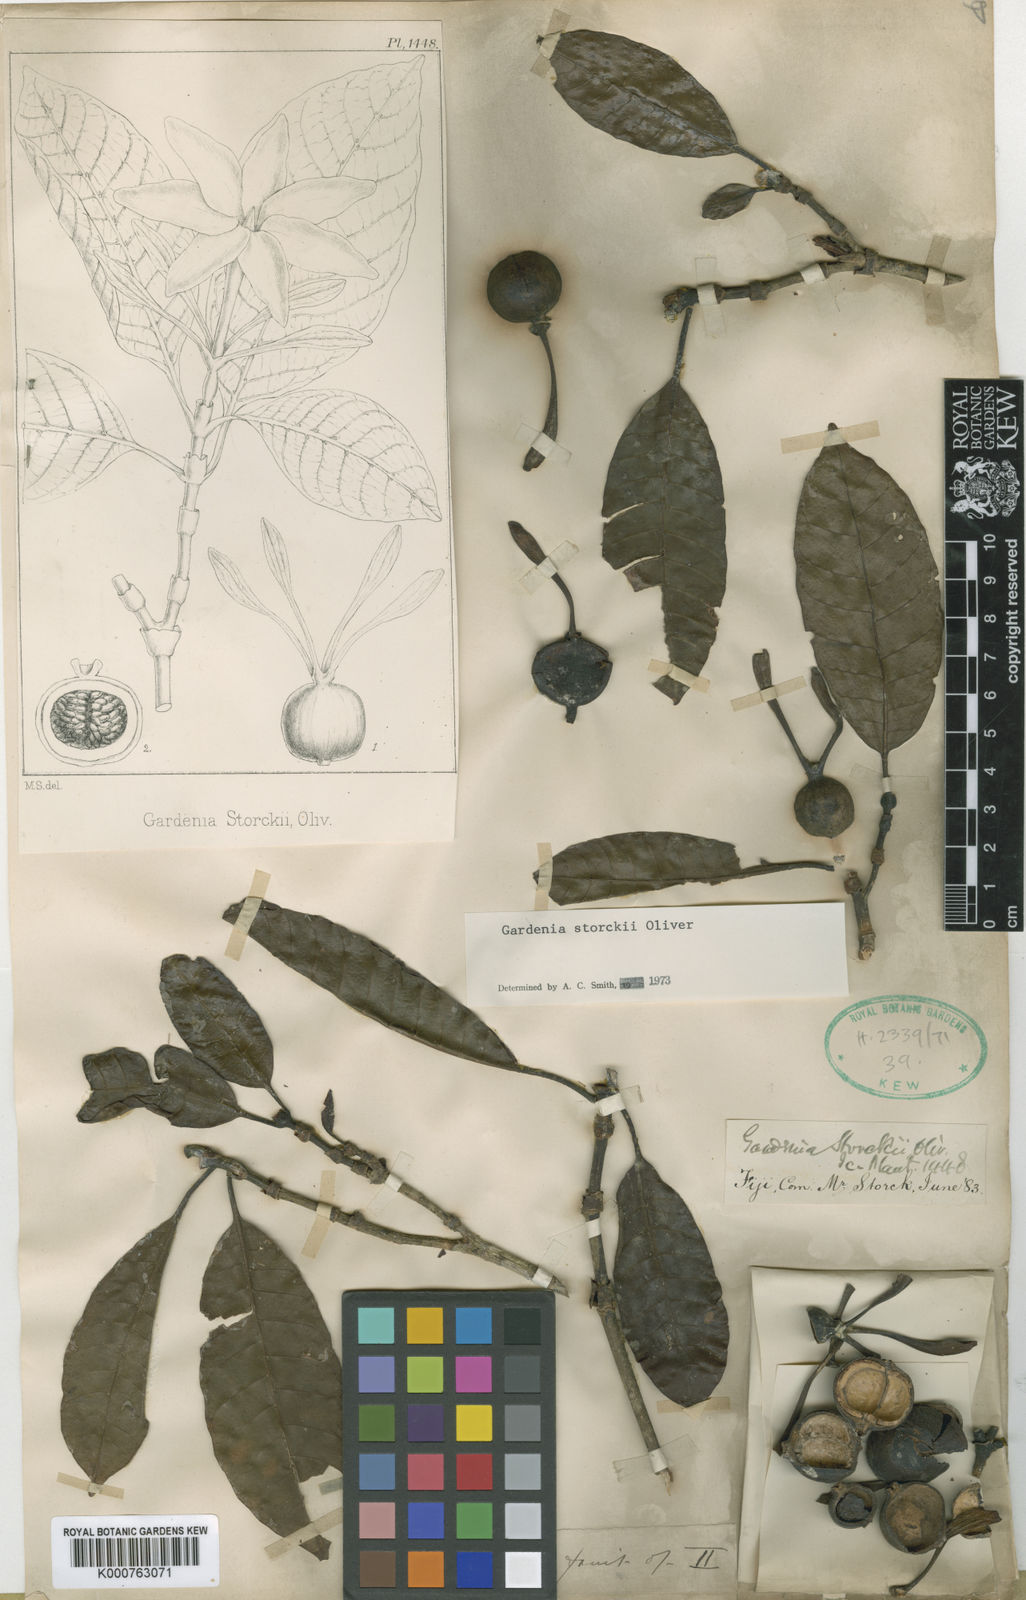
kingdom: Plantae
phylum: Tracheophyta
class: Magnoliopsida
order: Gentianales
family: Rubiaceae
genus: Gardenia
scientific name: Gardenia storckii
